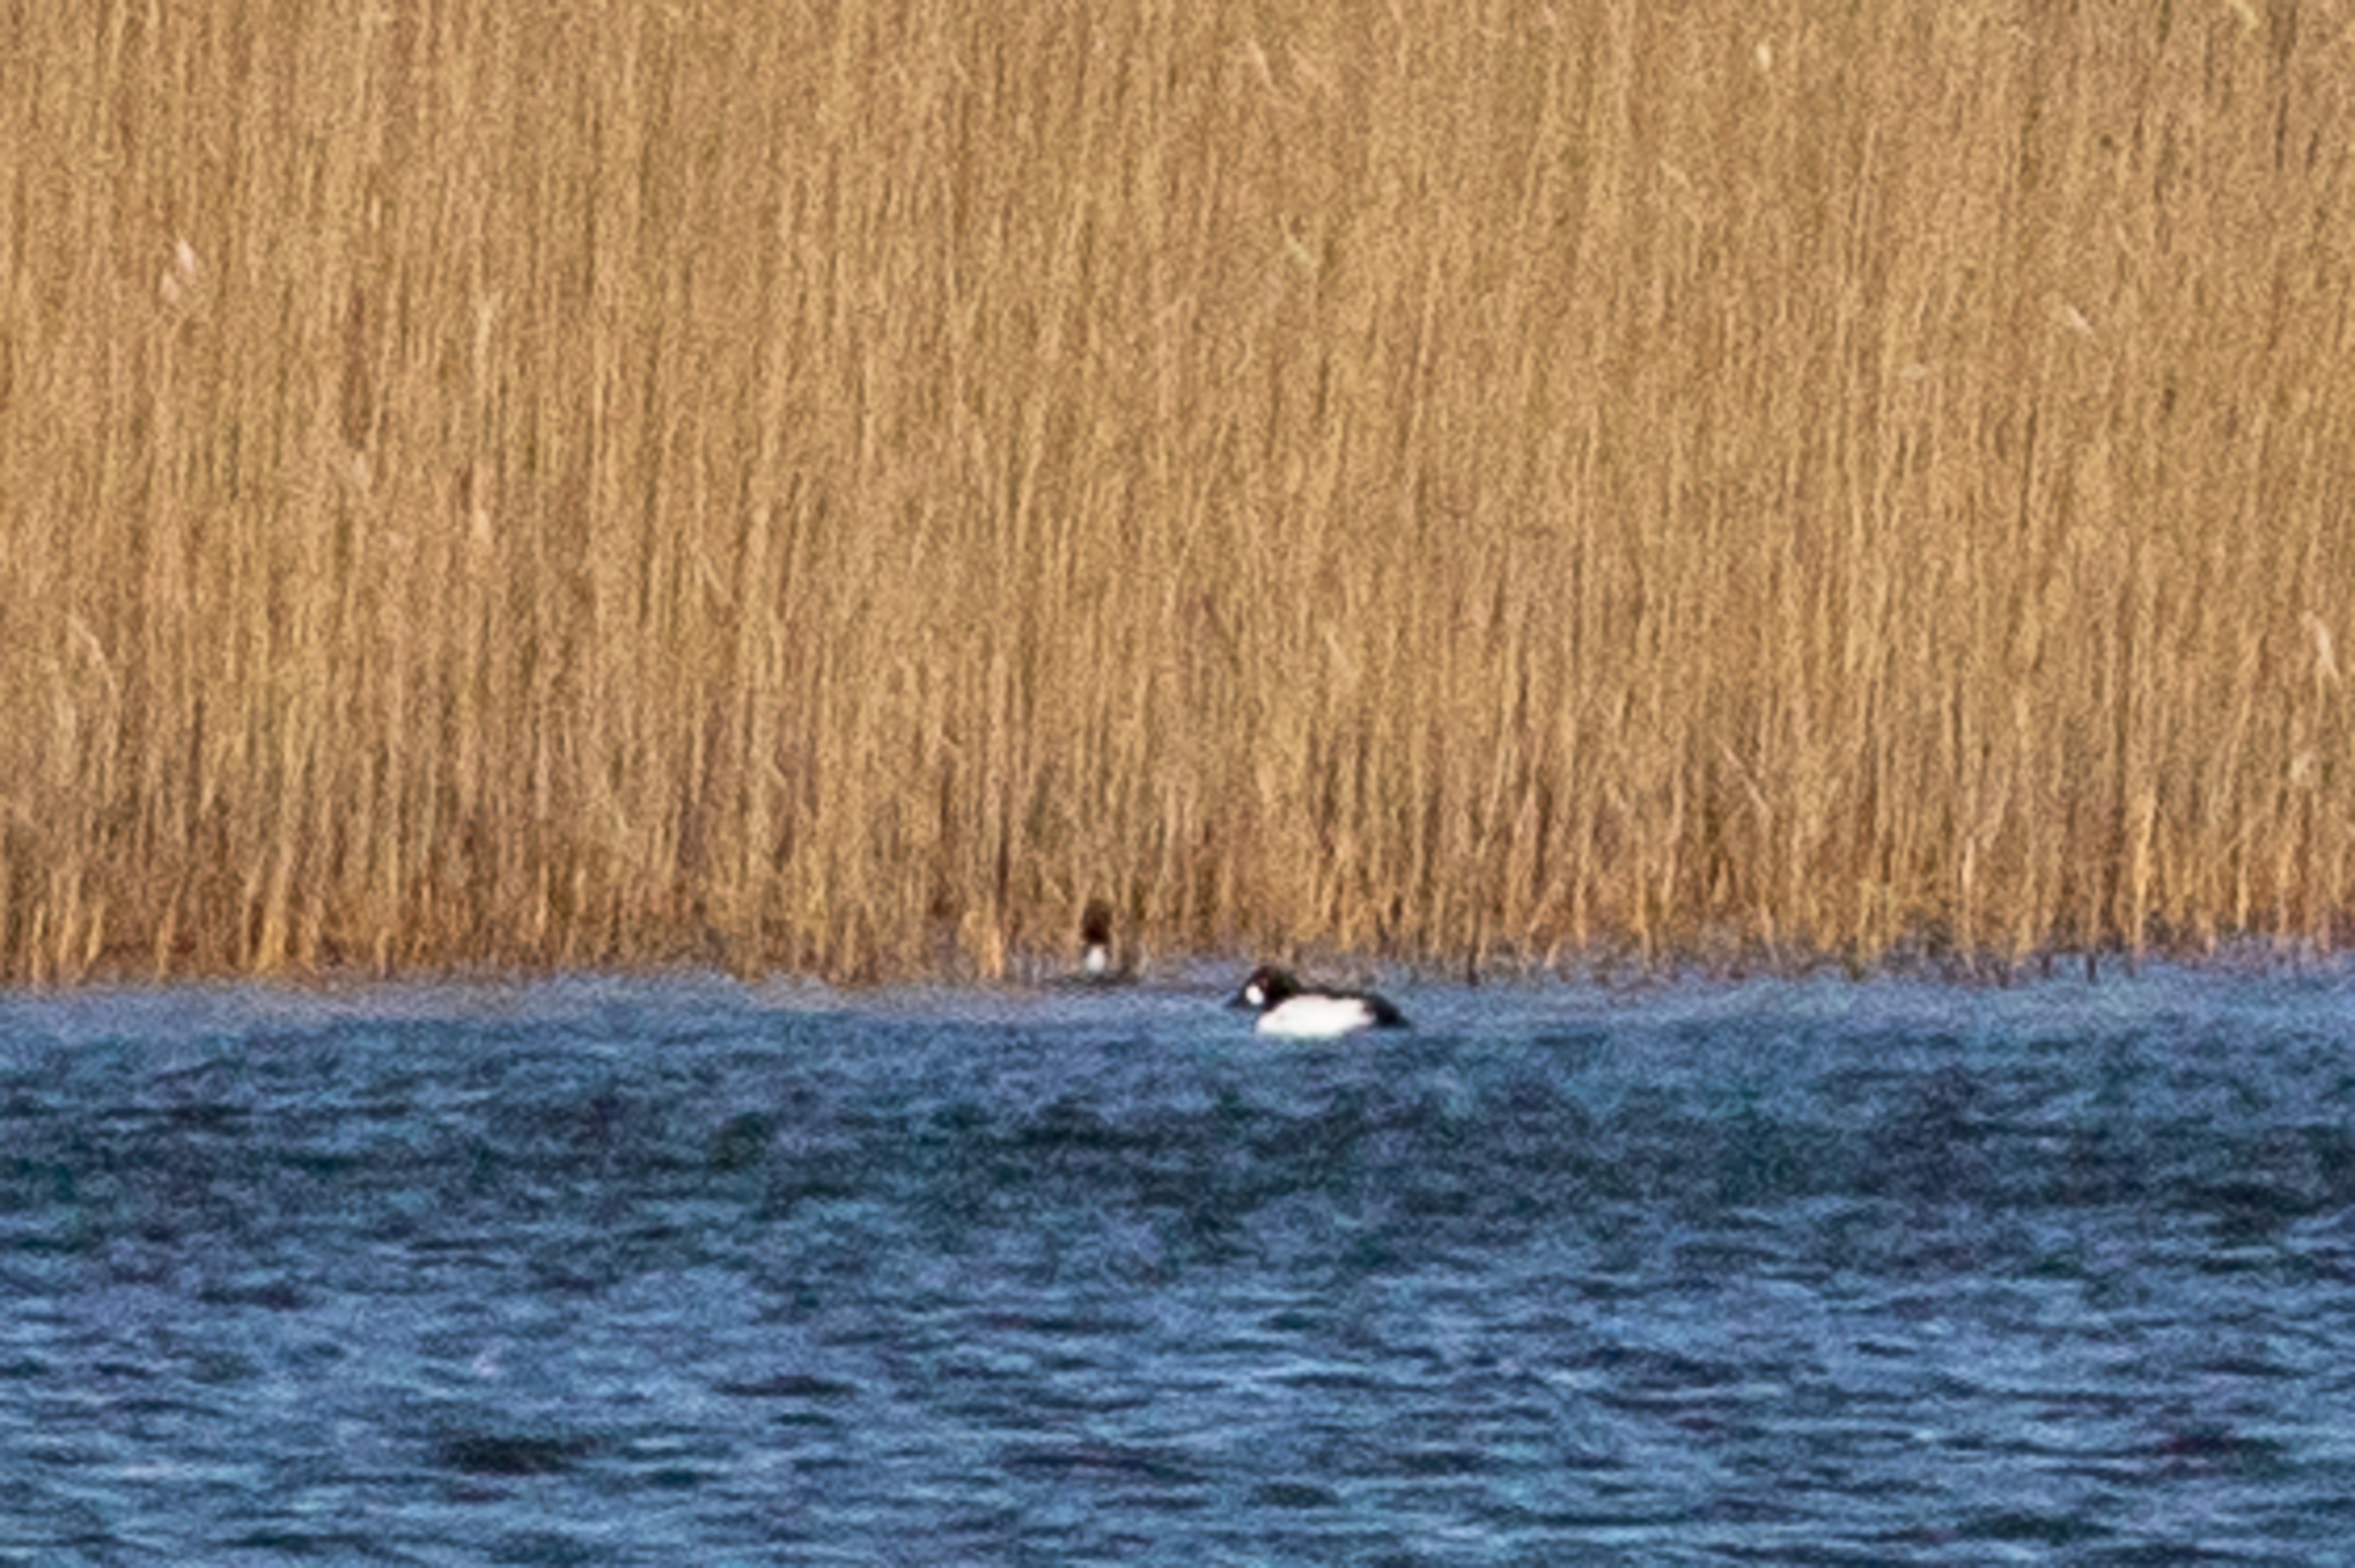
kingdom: Animalia
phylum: Chordata
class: Aves
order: Anseriformes
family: Anatidae
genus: Bucephala
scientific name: Bucephala clangula
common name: Hvinand
